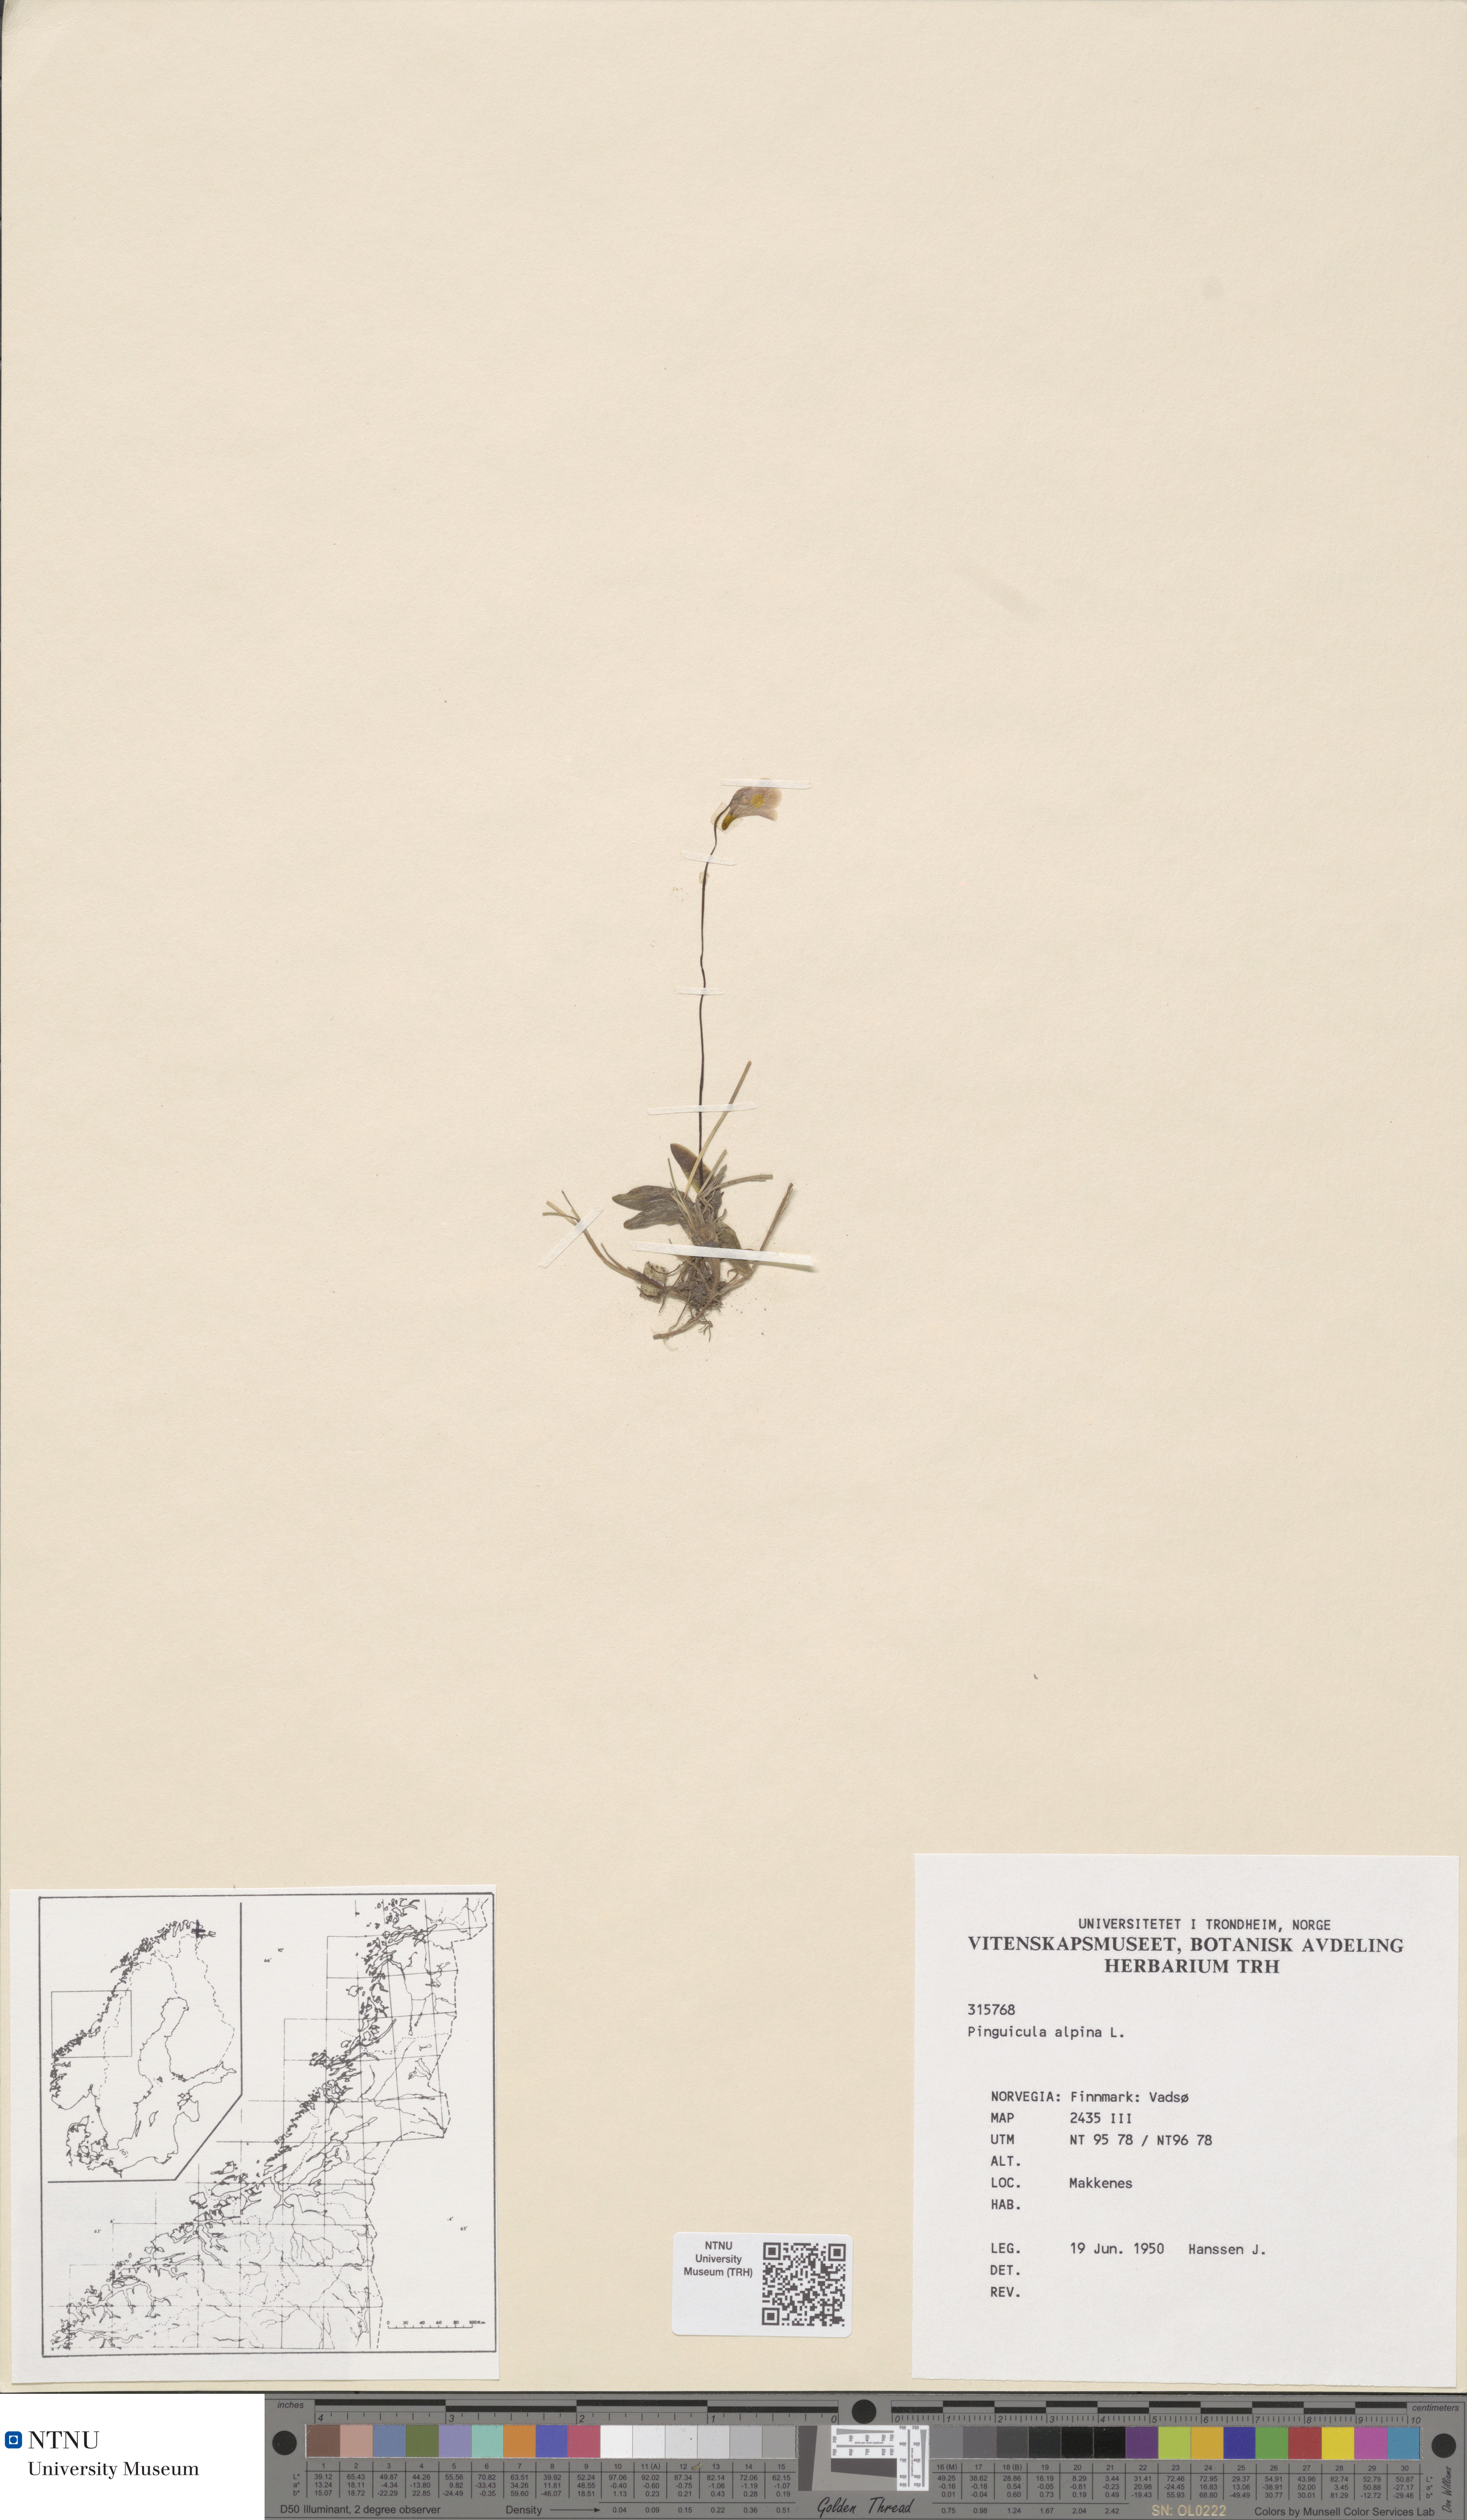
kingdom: Plantae
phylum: Tracheophyta
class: Magnoliopsida
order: Lamiales
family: Lentibulariaceae
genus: Pinguicula
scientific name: Pinguicula alpina
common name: Alpine butterwort
